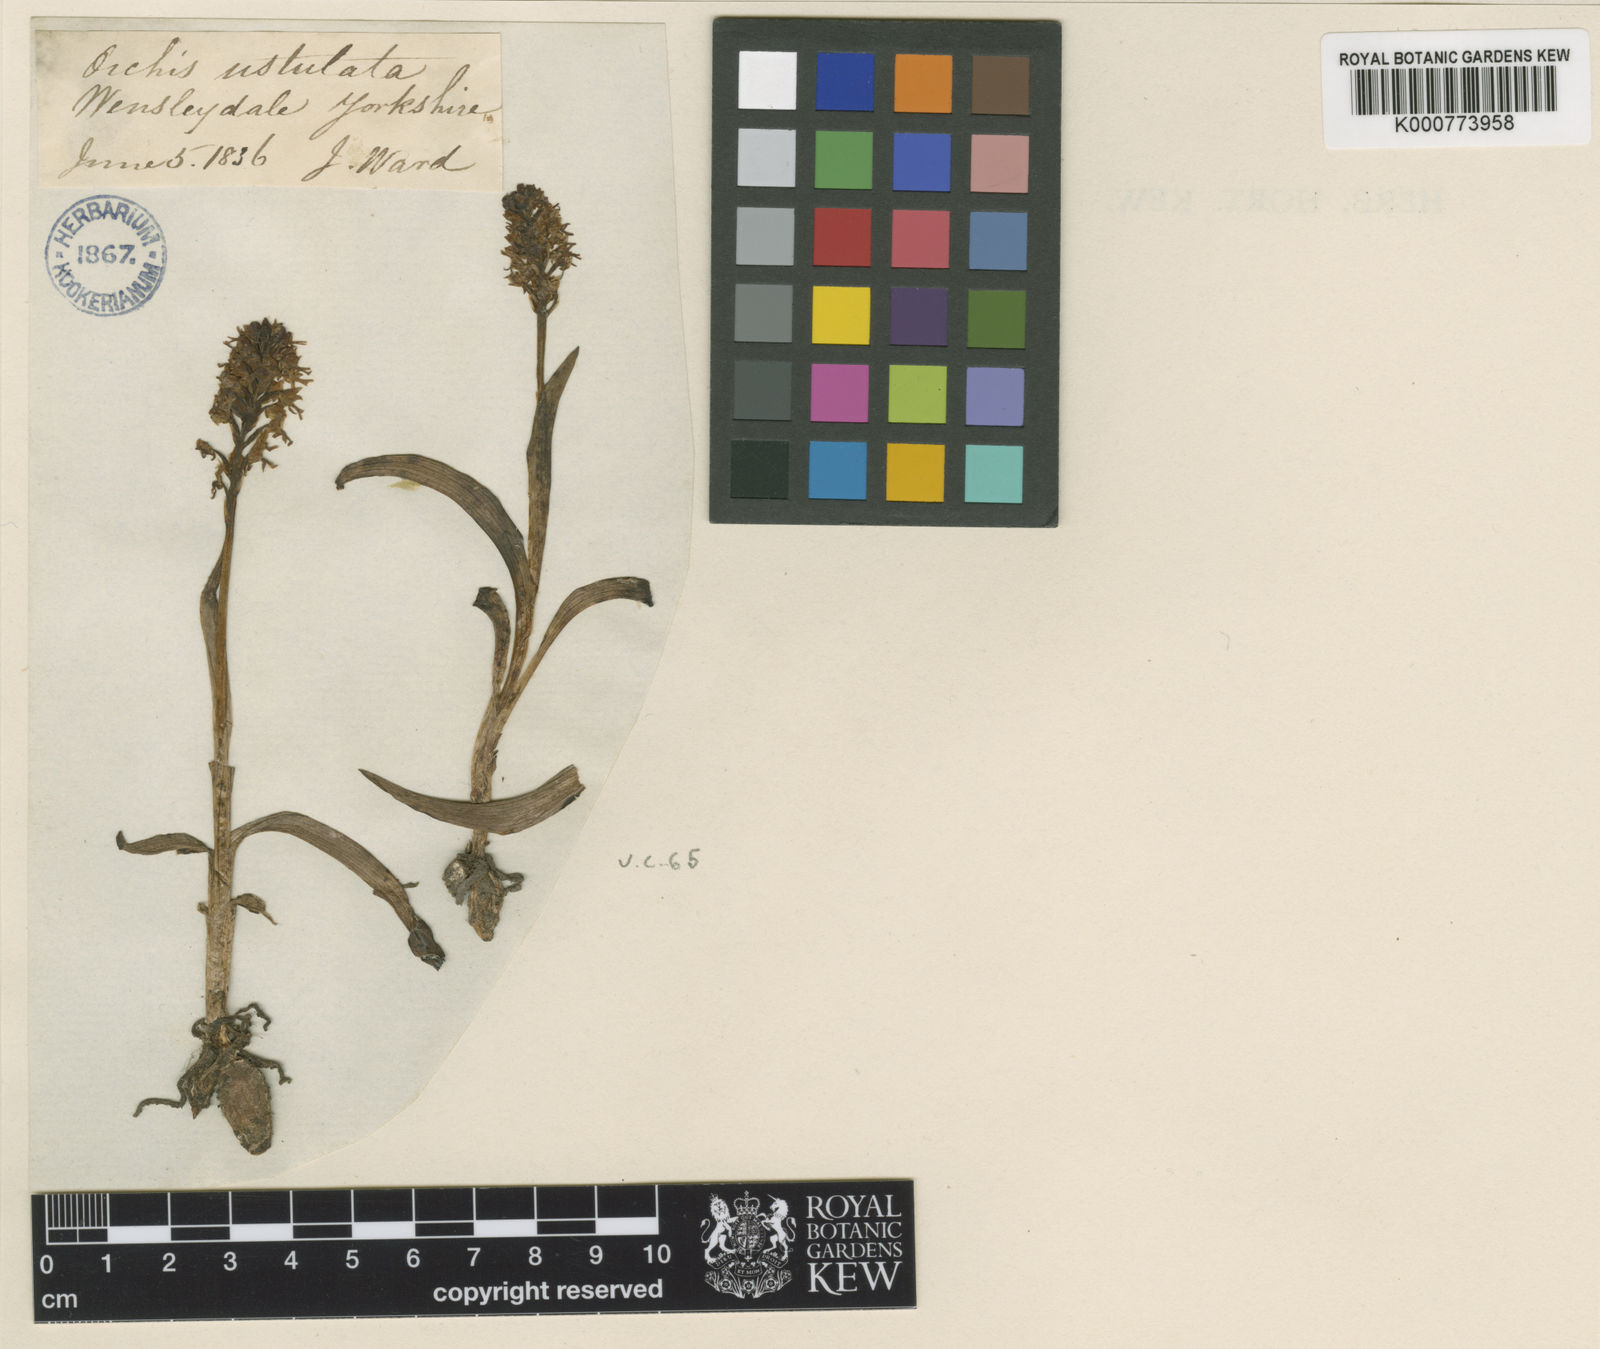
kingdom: Plantae
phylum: Tracheophyta
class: Liliopsida
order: Asparagales
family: Orchidaceae
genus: Neotinea
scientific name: Neotinea ustulata
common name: Burnt orchid
